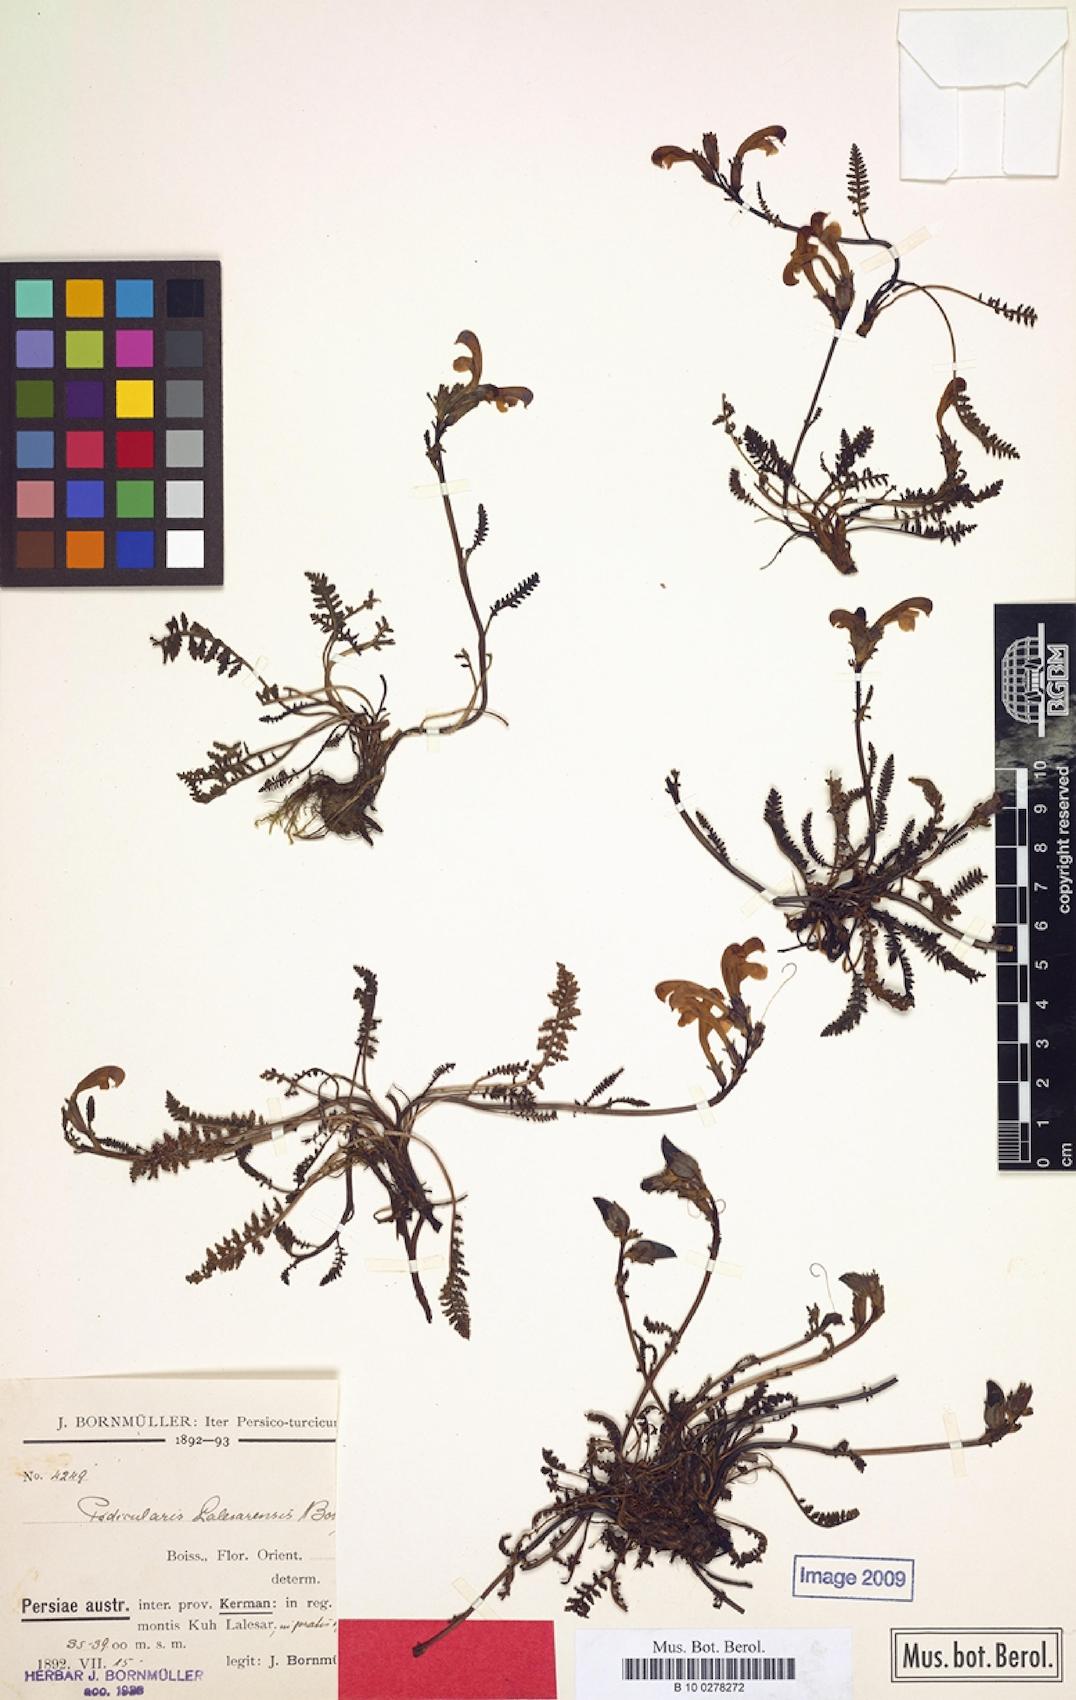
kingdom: Plantae
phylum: Tracheophyta
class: Magnoliopsida
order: Lamiales
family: Orobanchaceae
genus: Pedicularis
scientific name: Pedicularis cabulica
